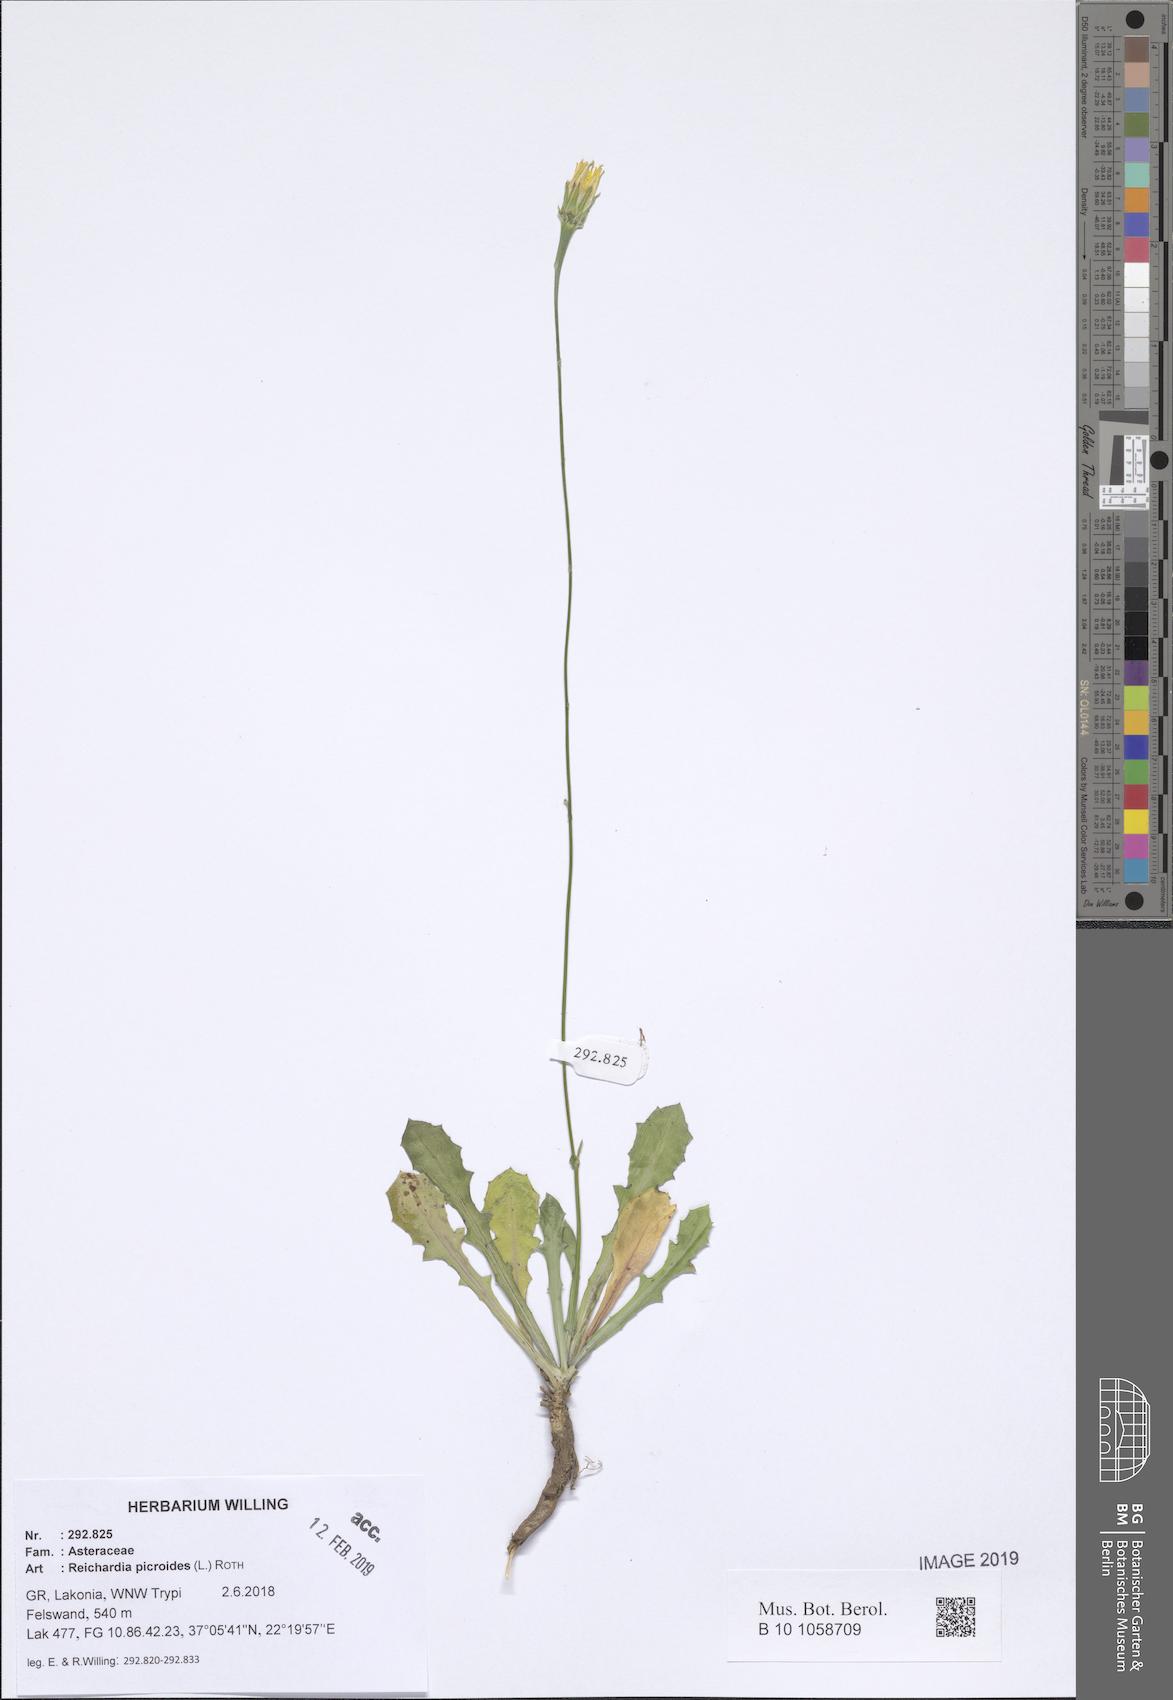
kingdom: Plantae
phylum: Tracheophyta
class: Magnoliopsida
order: Asterales
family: Asteraceae
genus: Reichardia
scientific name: Reichardia picroides
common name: Common brighteyes
